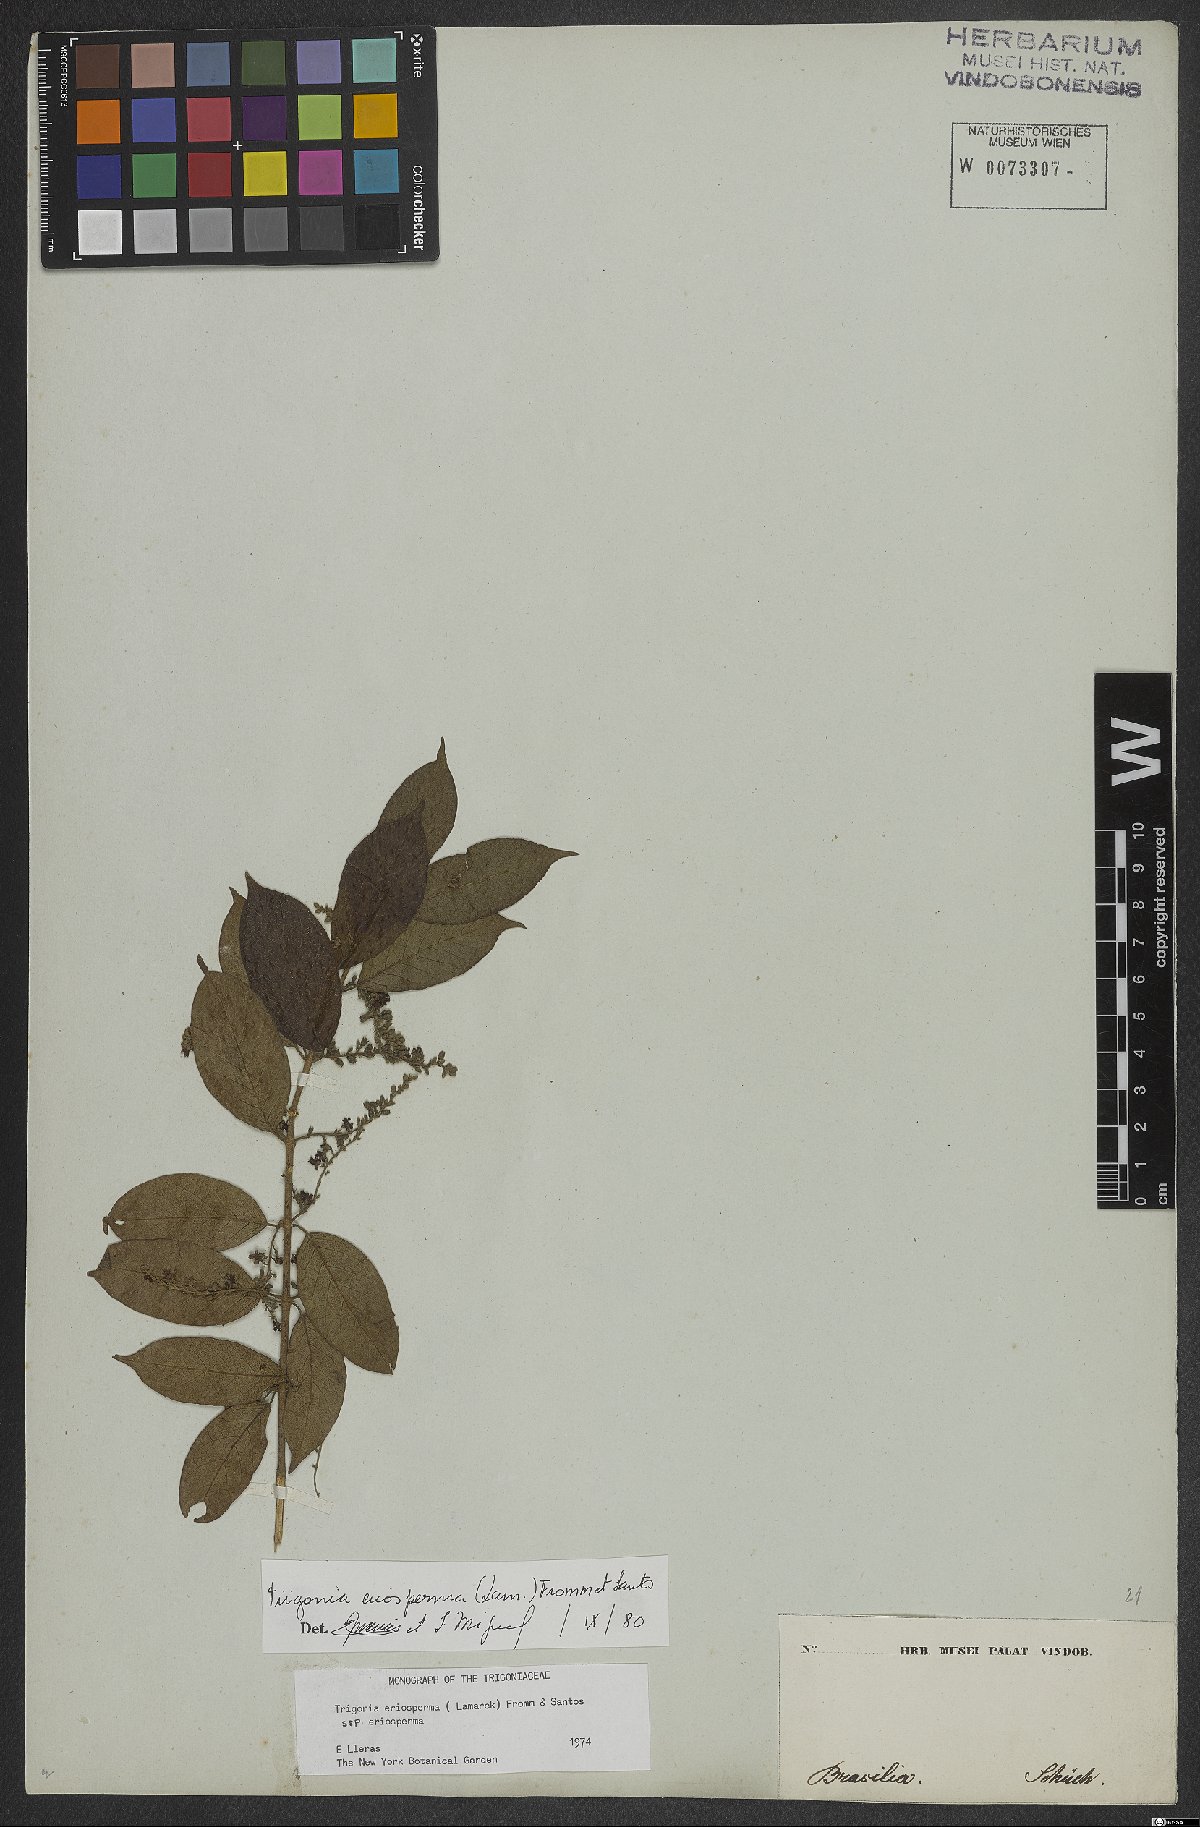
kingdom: Plantae
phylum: Tracheophyta
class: Magnoliopsida
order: Malpighiales
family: Trigoniaceae
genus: Trigonia
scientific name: Trigonia eriosperma
